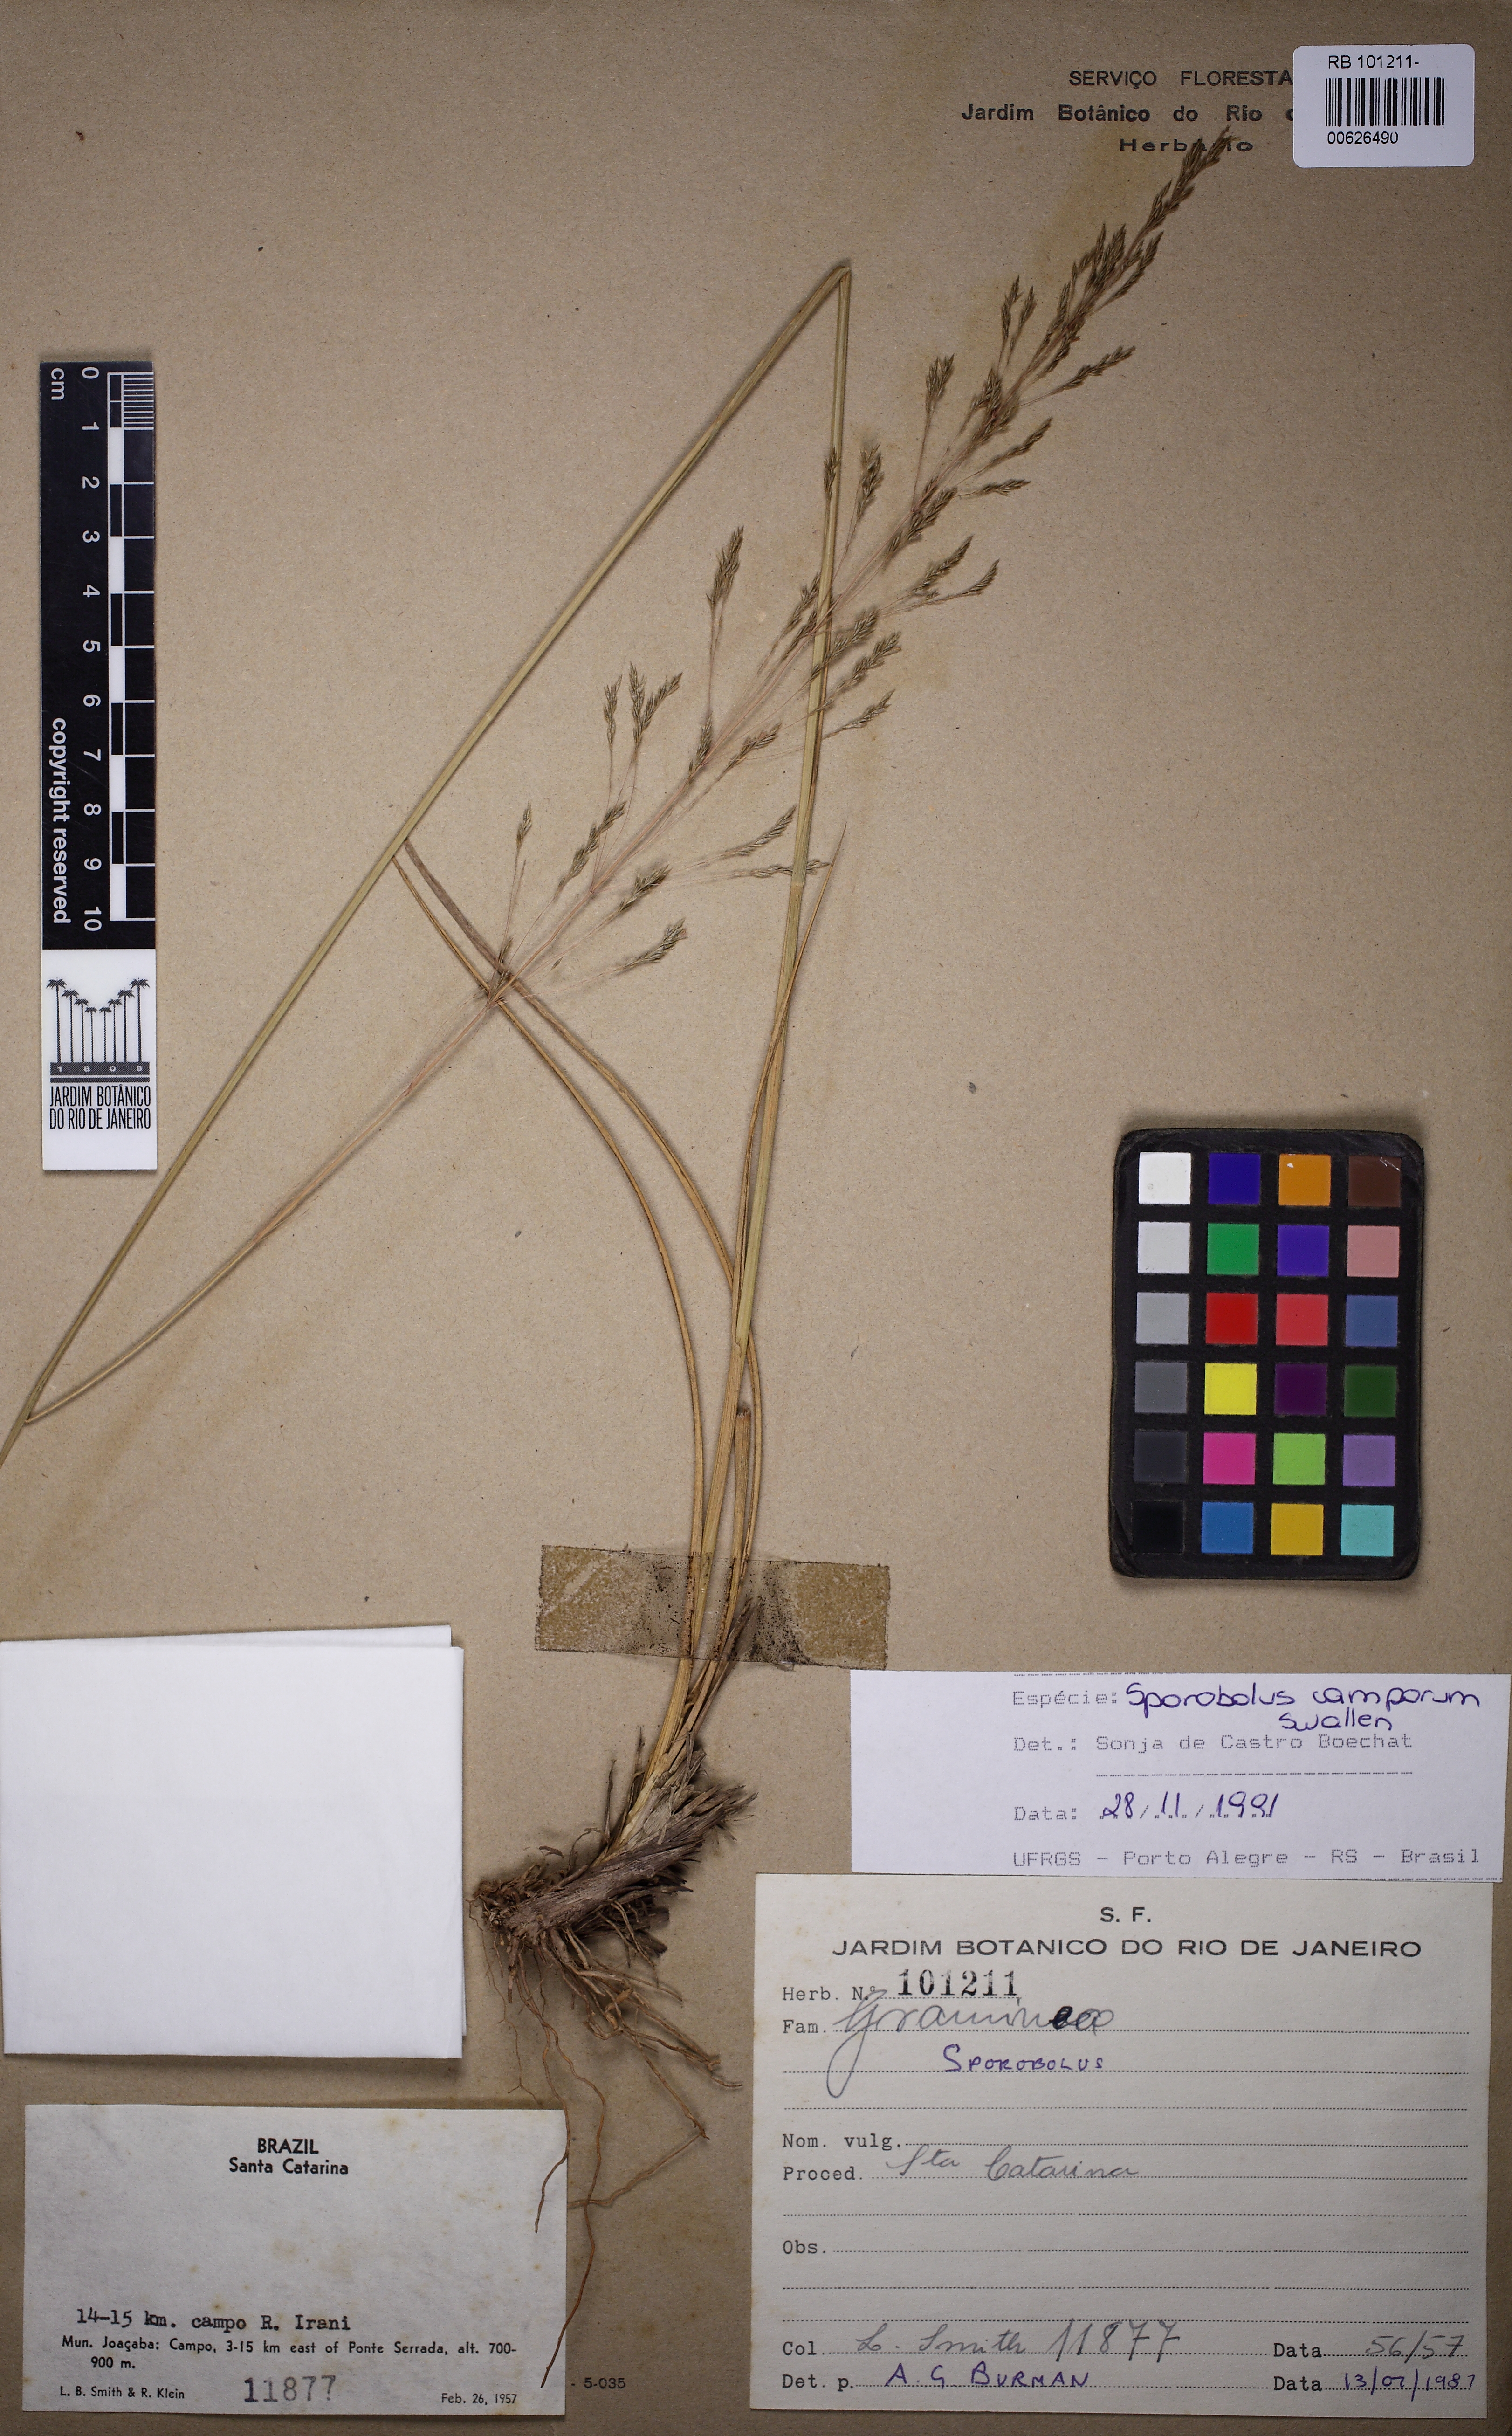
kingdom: Plantae
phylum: Tracheophyta
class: Liliopsida
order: Poales
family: Poaceae
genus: Sporobolus
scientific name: Sporobolus camporum
